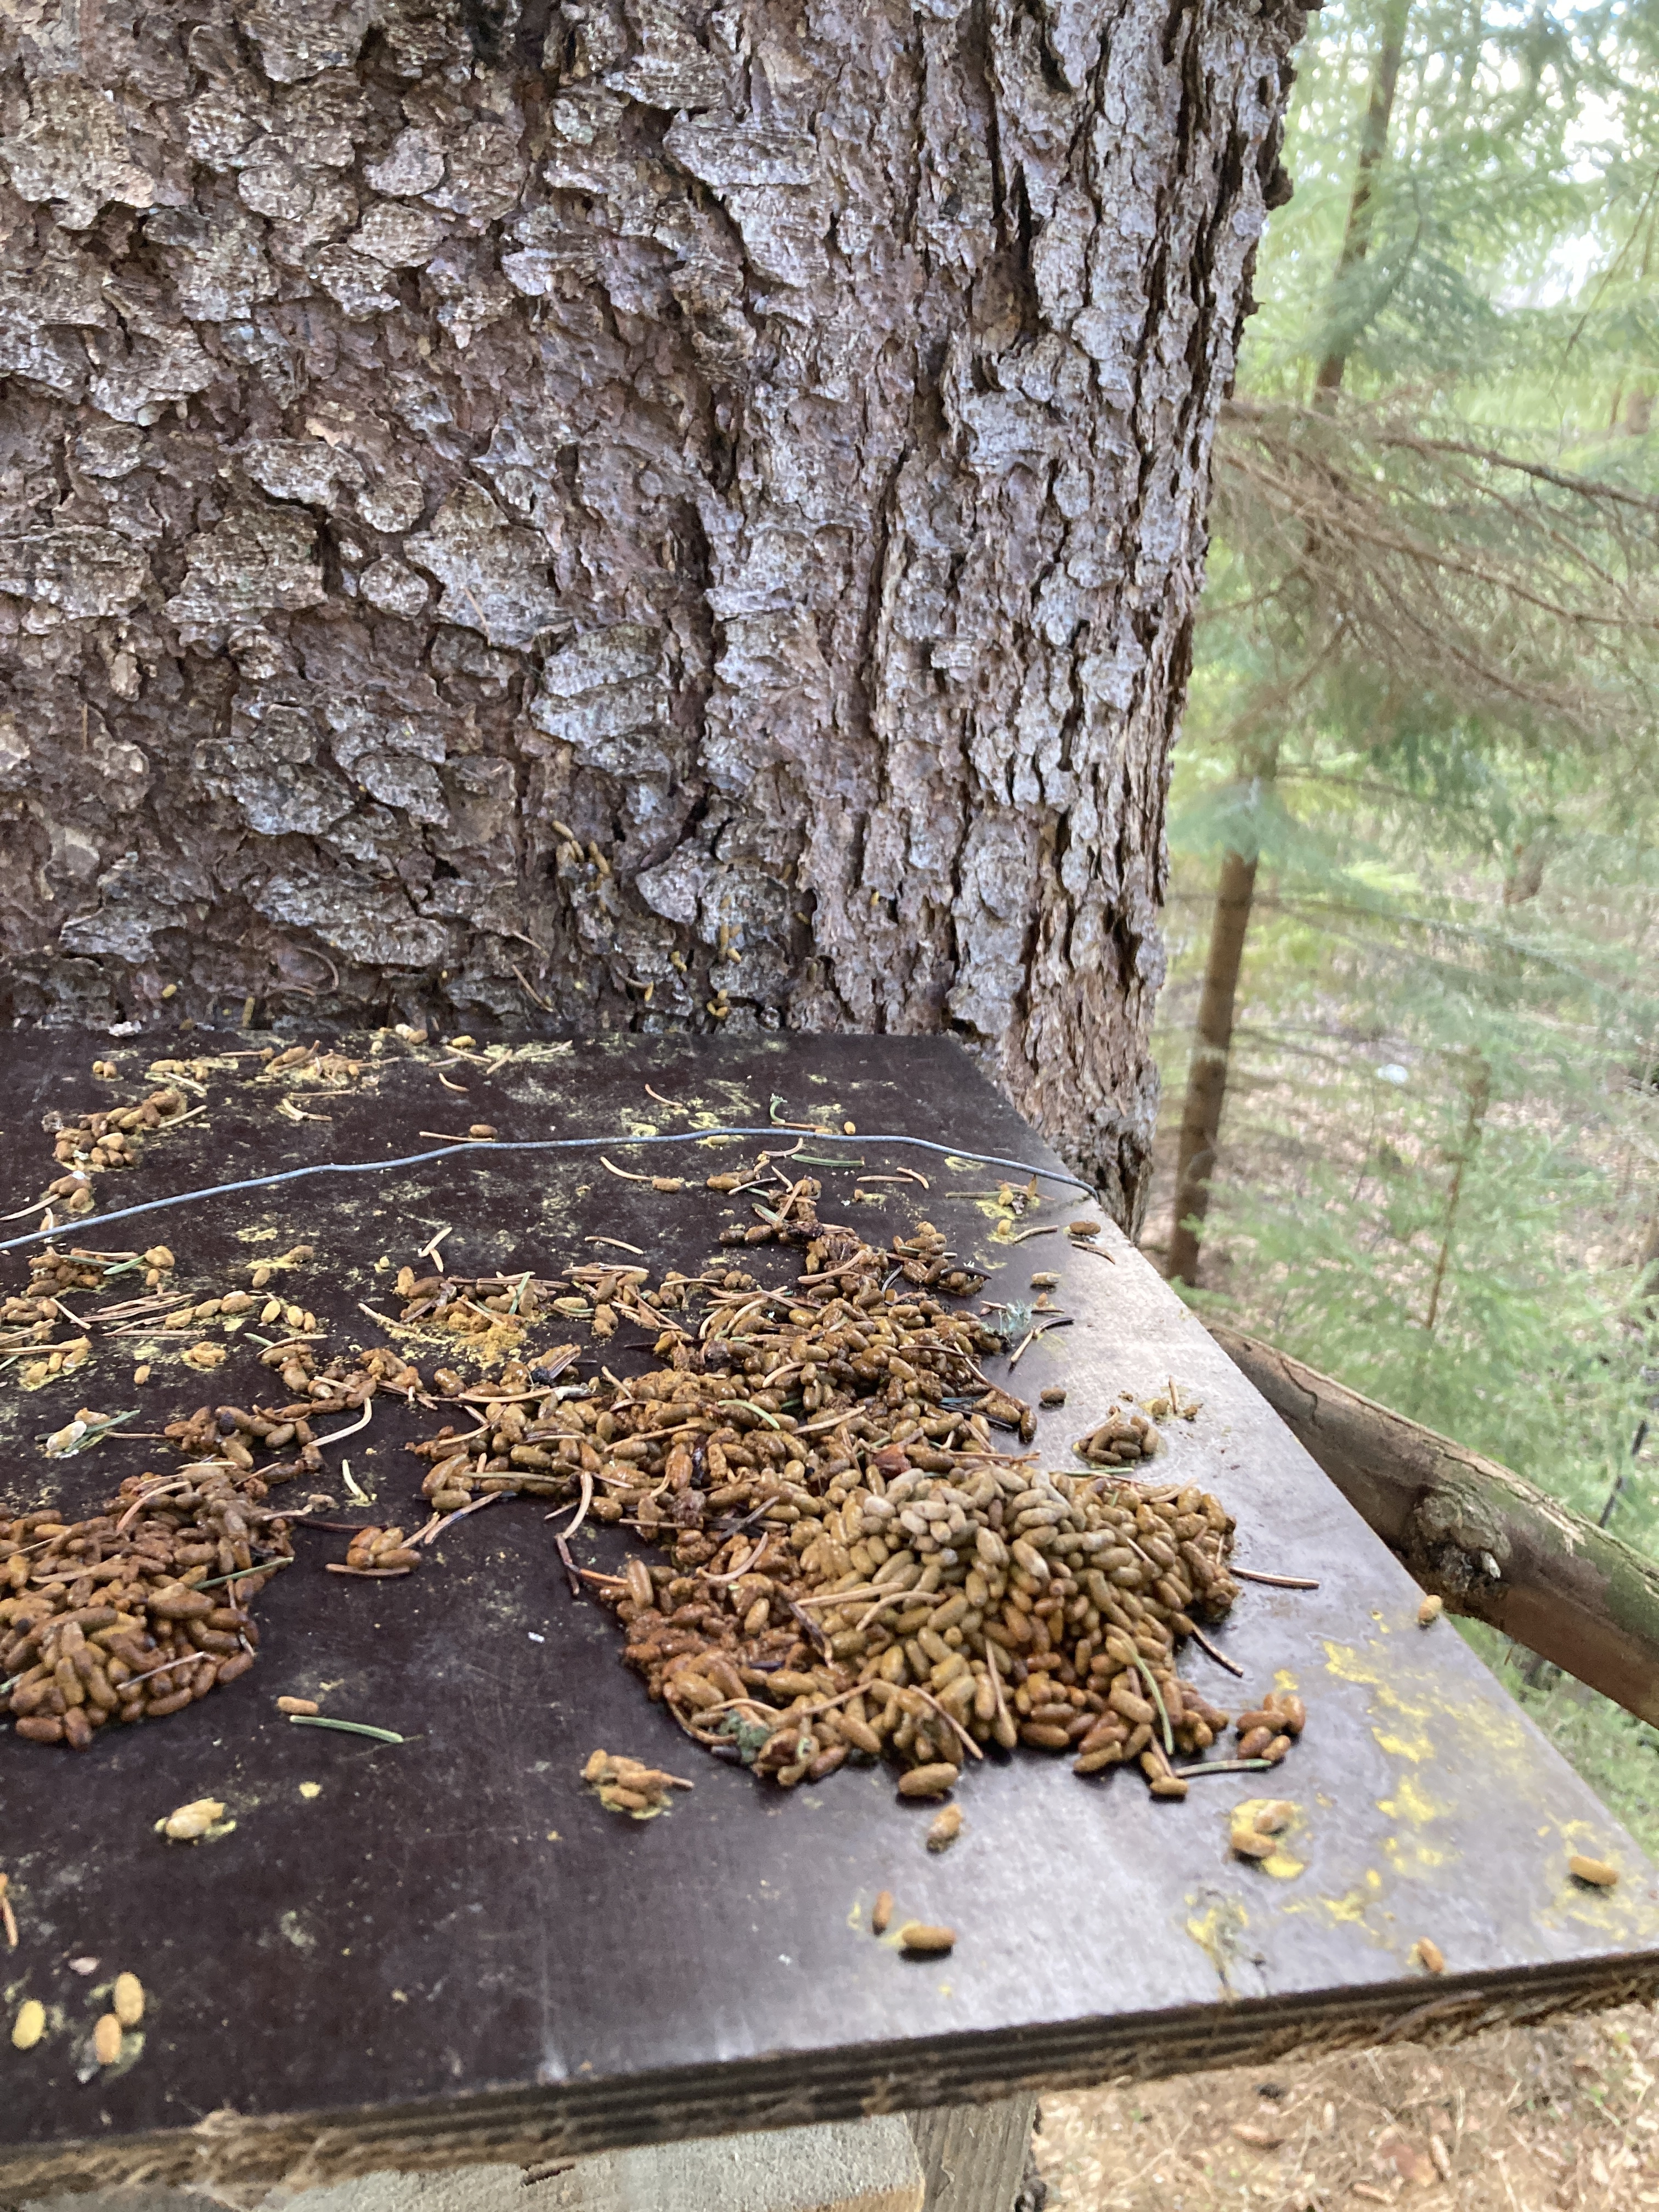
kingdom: Animalia
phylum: Chordata
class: Mammalia
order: Rodentia
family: Sciuridae
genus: Pteromys
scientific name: Pteromys volans
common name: Siberian flying squirrel
